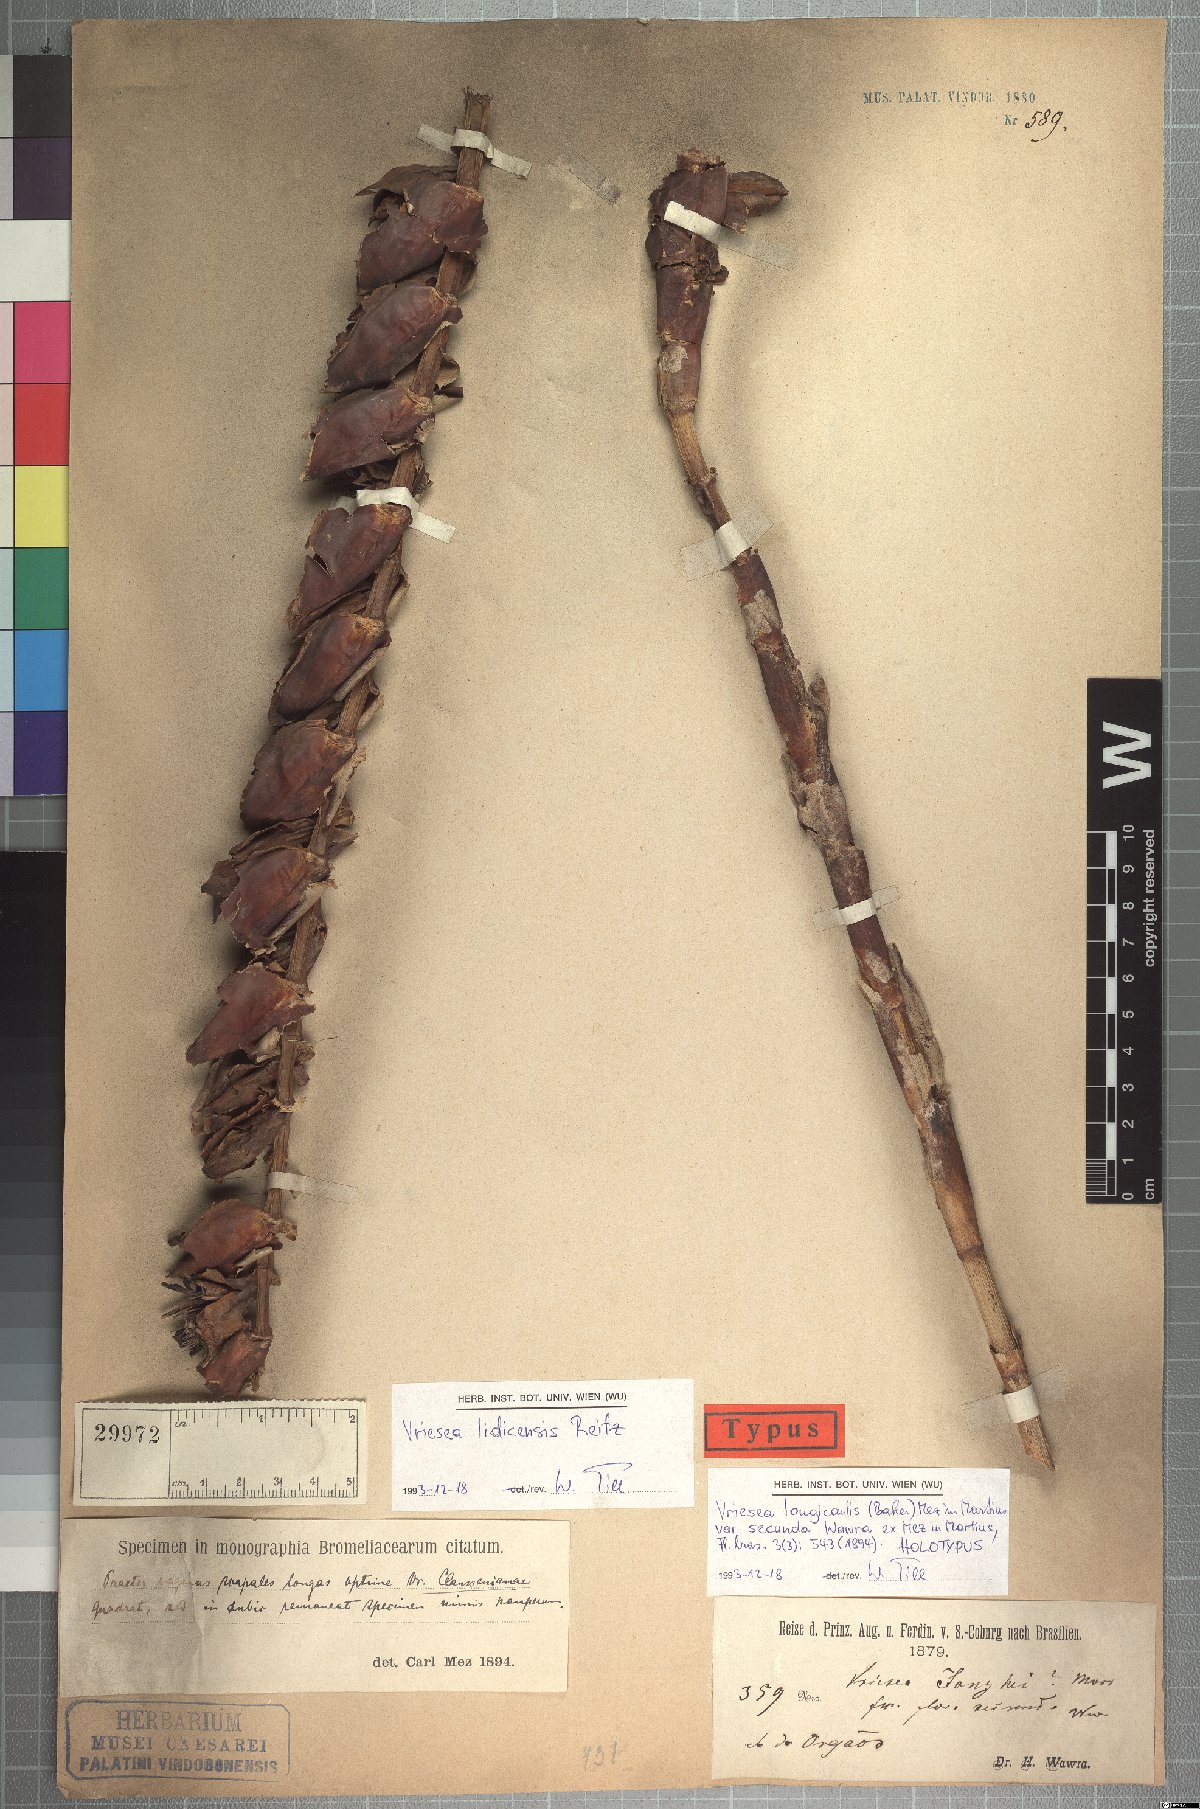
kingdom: Plantae
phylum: Tracheophyta
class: Liliopsida
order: Poales
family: Bromeliaceae
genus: Vriesea
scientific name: Vriesea lidicensis
